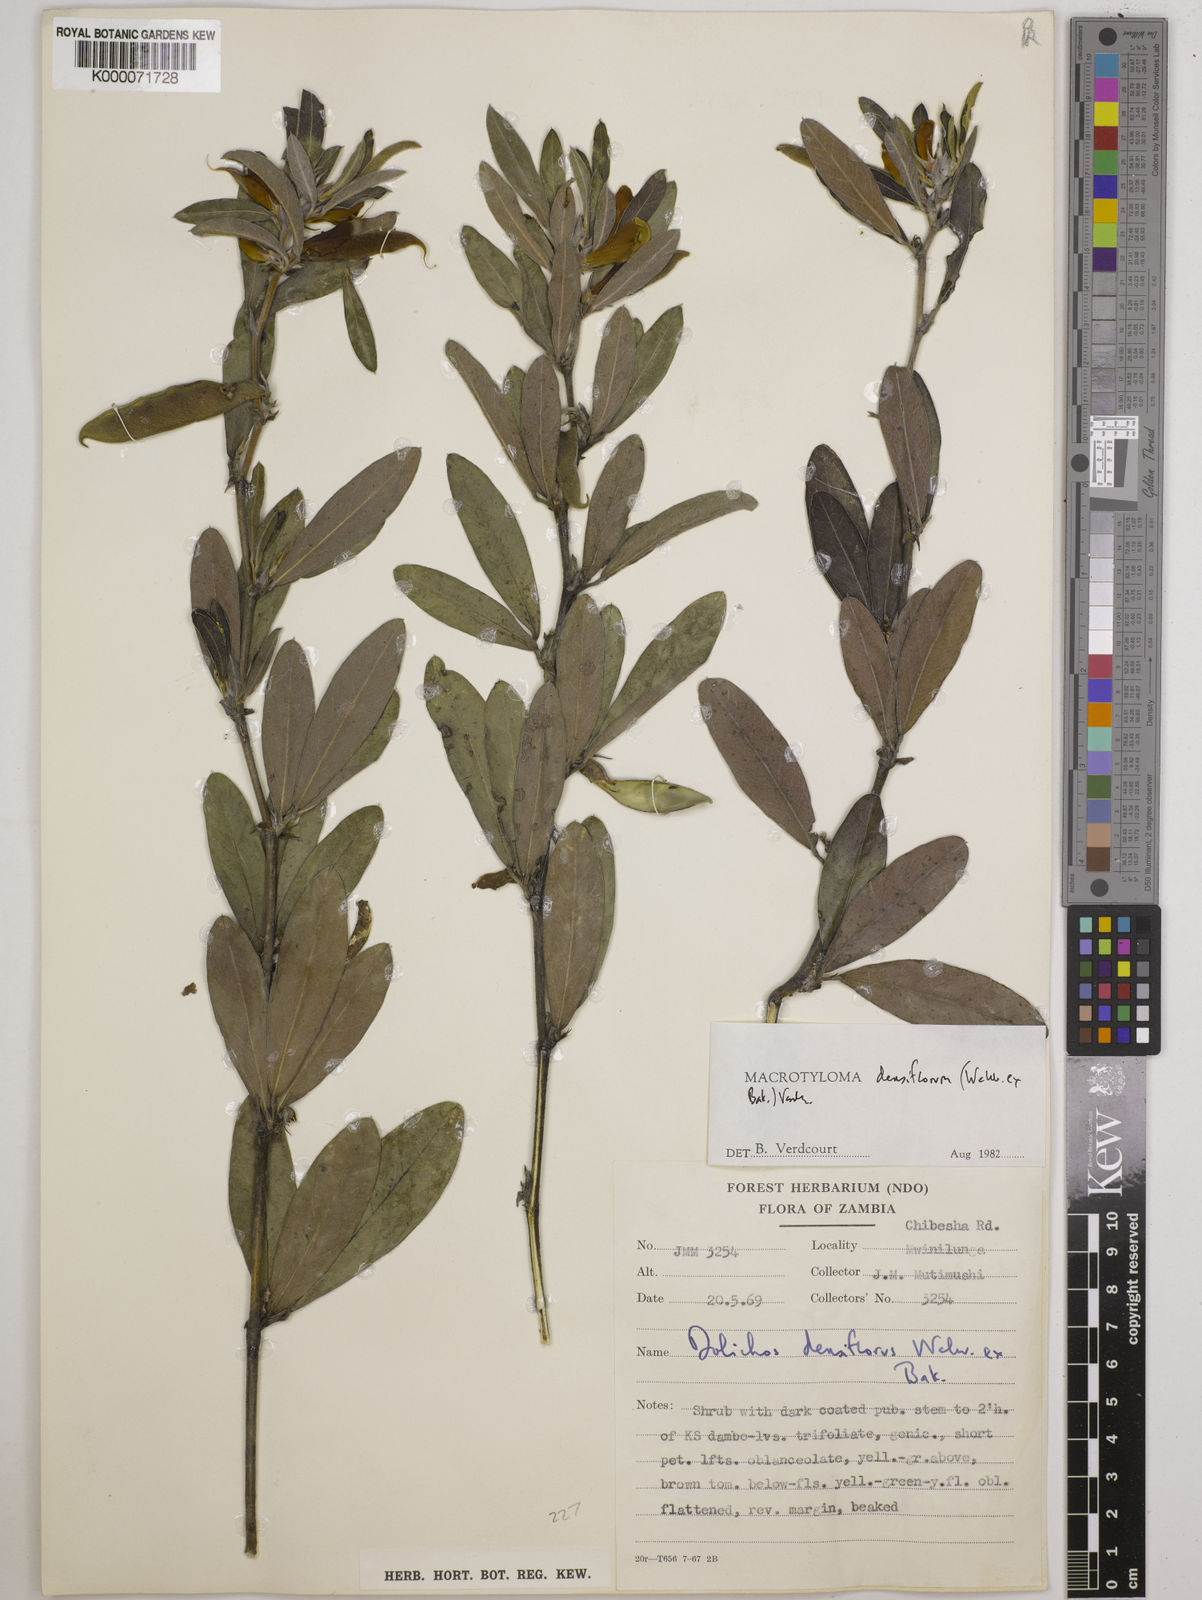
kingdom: Plantae
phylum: Tracheophyta
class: Magnoliopsida
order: Fabales
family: Fabaceae
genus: Macrotyloma
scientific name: Macrotyloma densiflorum
